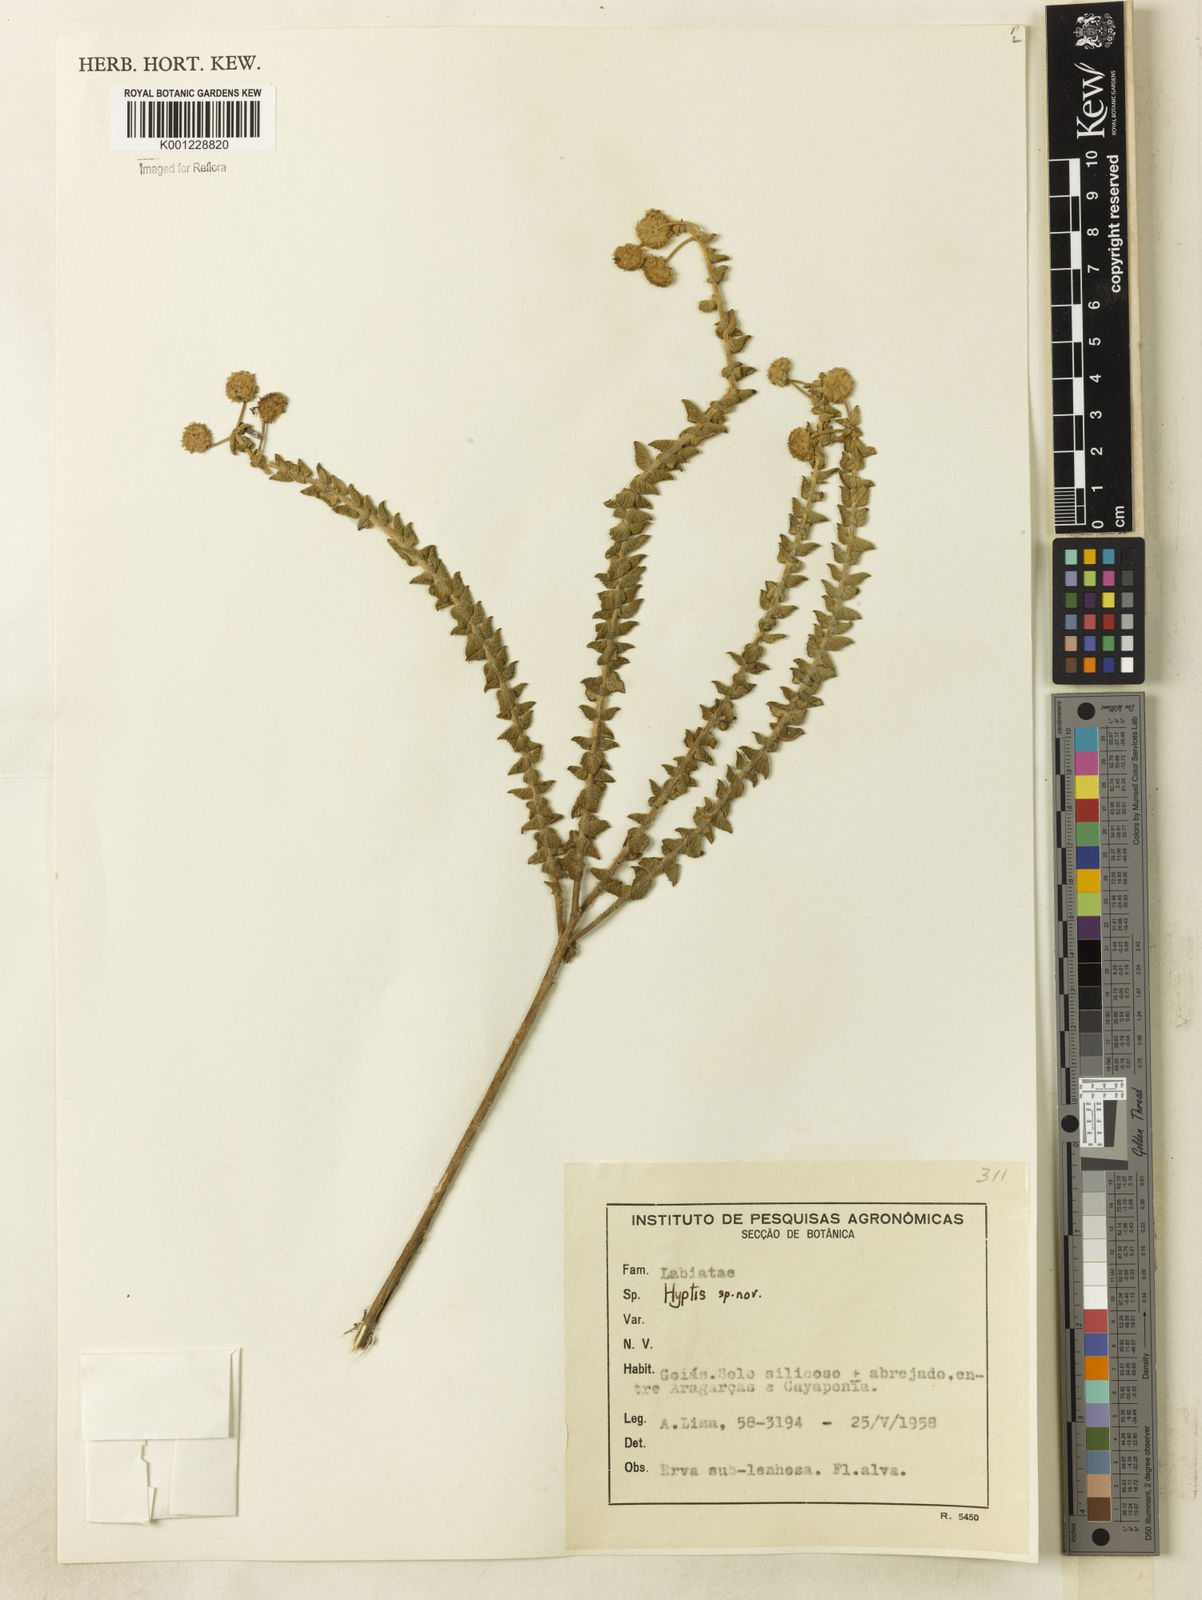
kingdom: Plantae
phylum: Tracheophyta
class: Magnoliopsida
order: Lamiales
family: Lamiaceae
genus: Hyptis
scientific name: Hyptis
